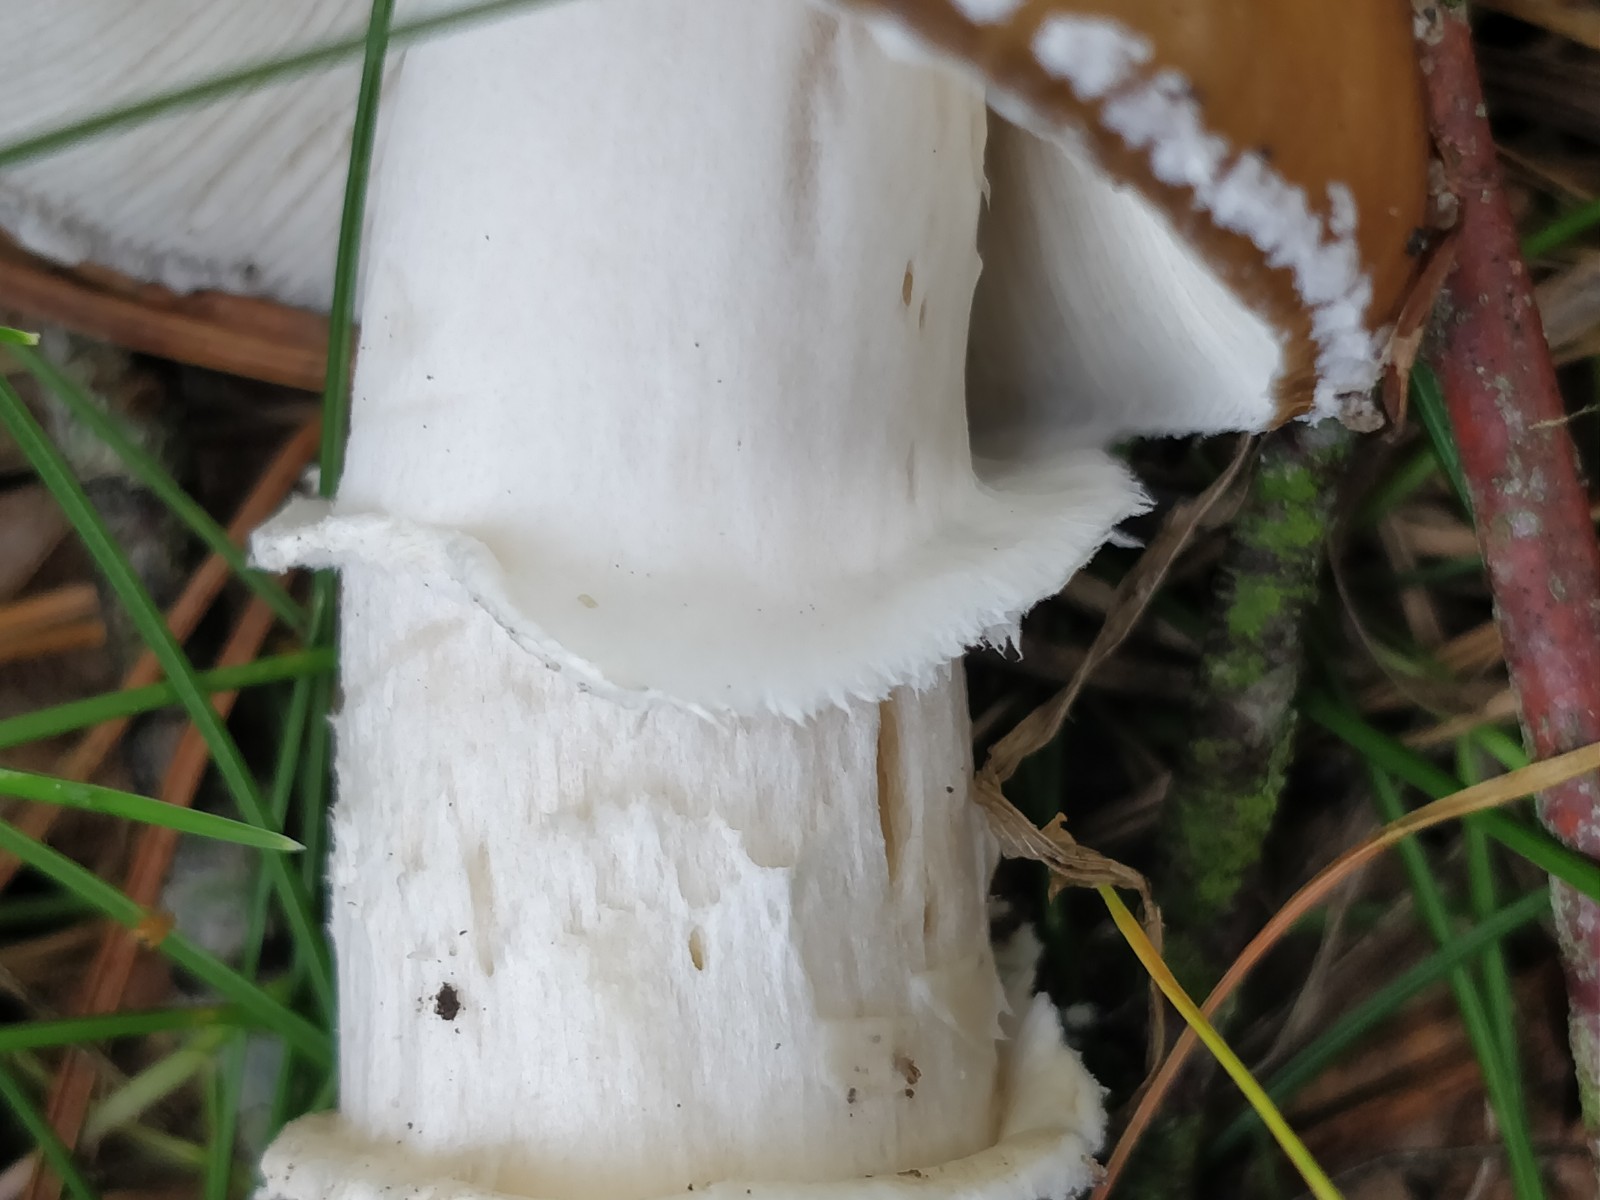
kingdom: Fungi
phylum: Basidiomycota
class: Agaricomycetes
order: Agaricales
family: Amanitaceae
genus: Amanita
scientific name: Amanita pantherina
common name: panter-fluesvamp
